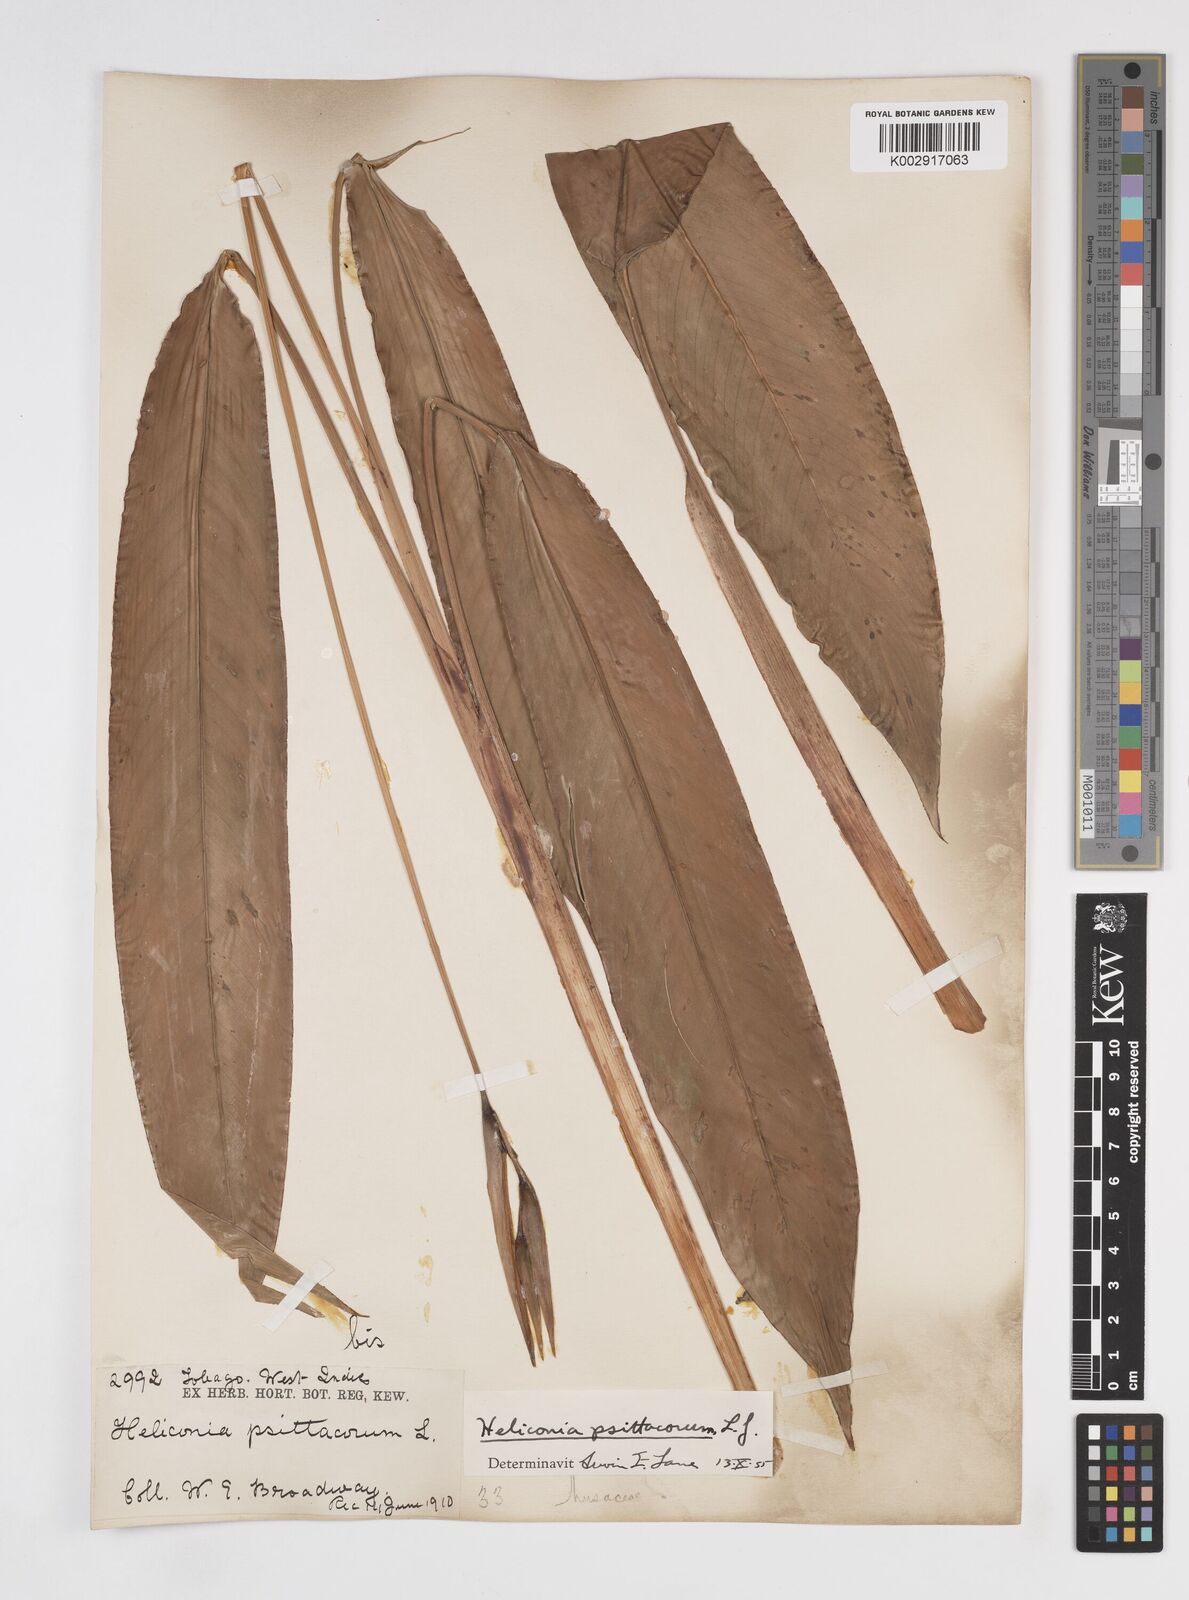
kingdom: Plantae
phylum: Tracheophyta
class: Liliopsida
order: Zingiberales
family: Heliconiaceae
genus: Heliconia
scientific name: Heliconia psittacorum
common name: Parrot's-flower
